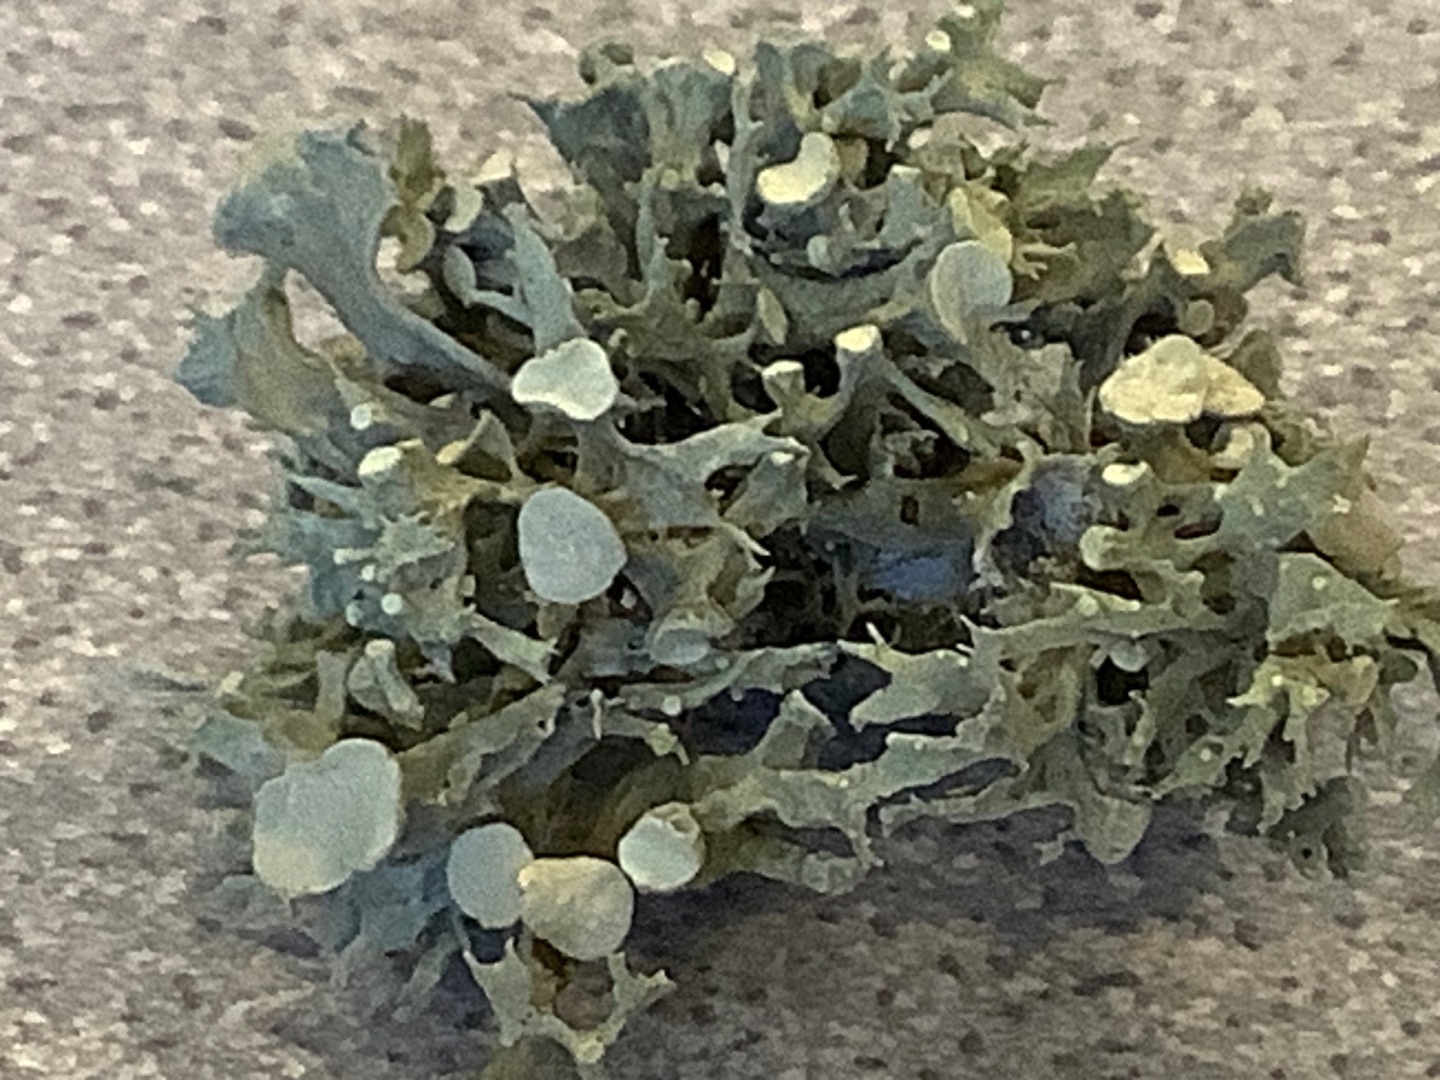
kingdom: Fungi
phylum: Ascomycota
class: Lecanoromycetes
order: Lecanorales
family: Ramalinaceae
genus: Ramalina
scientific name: Ramalina fastigiata
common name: Tue-grenlav
